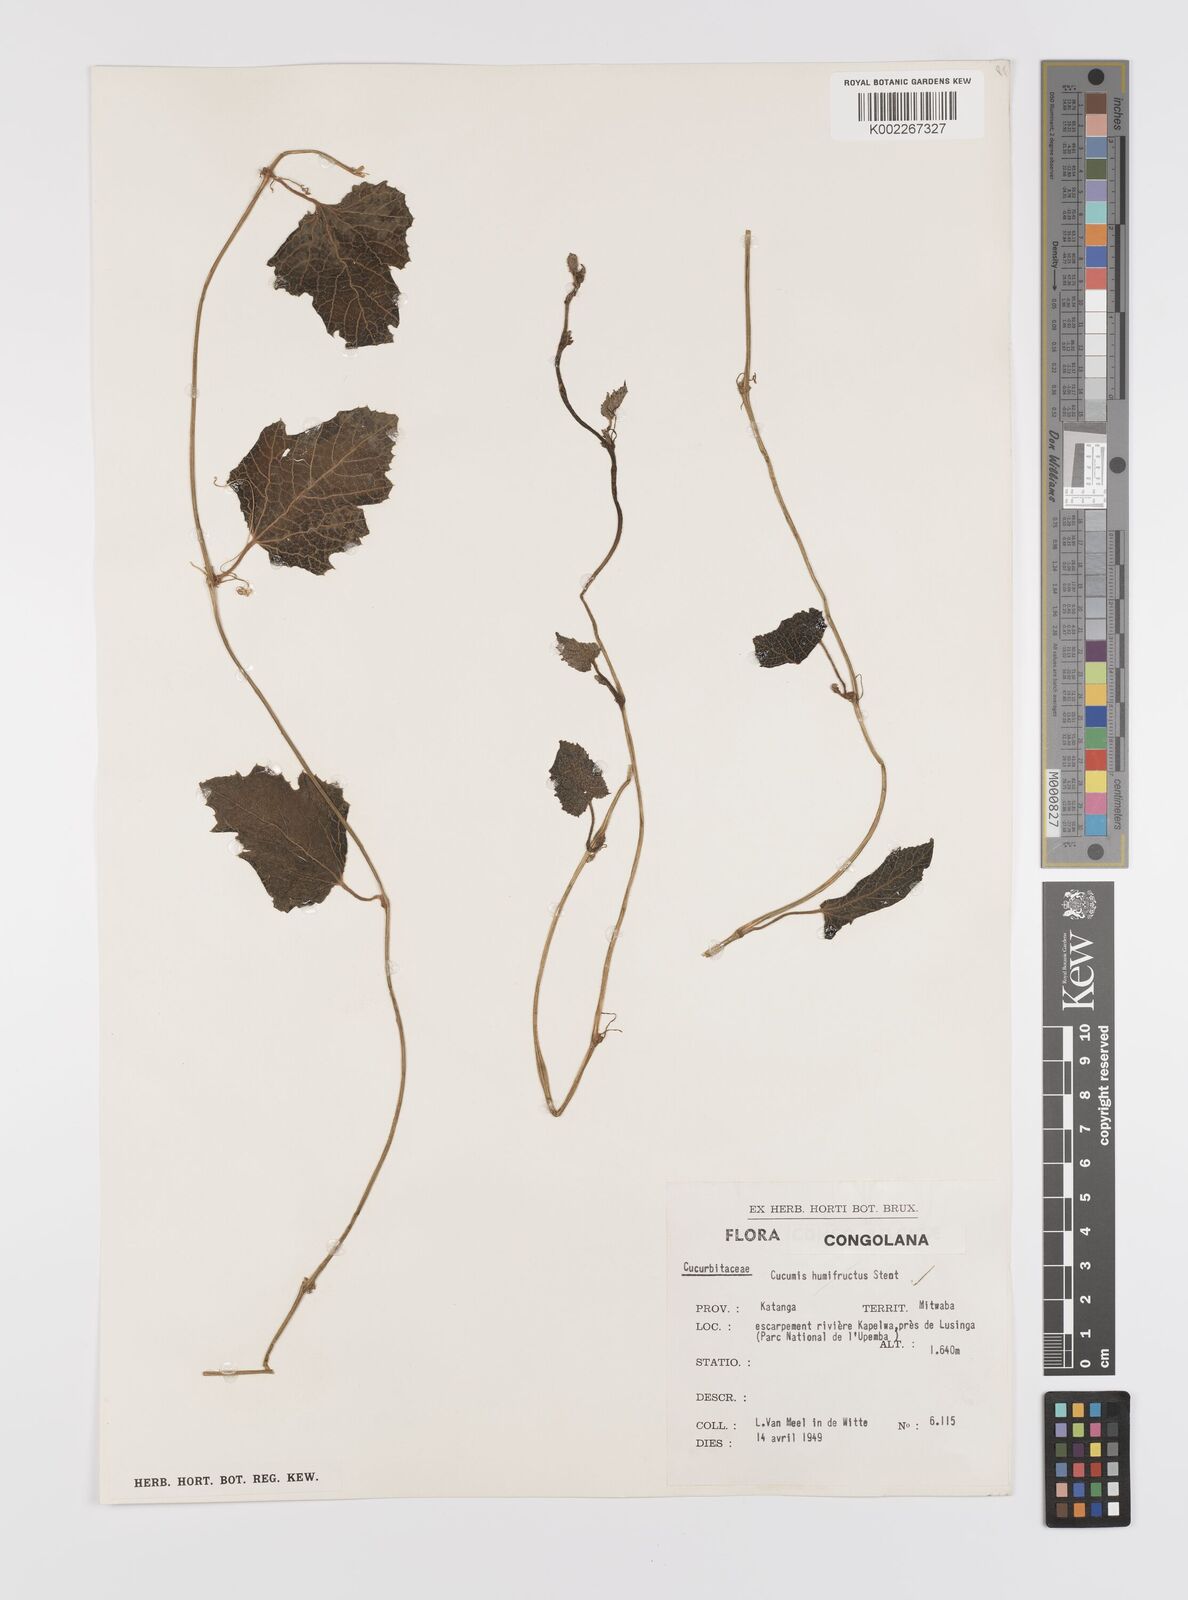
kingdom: Plantae
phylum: Tracheophyta
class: Magnoliopsida
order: Cucurbitales
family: Cucurbitaceae
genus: Cucumis
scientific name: Cucumis hirsutus
